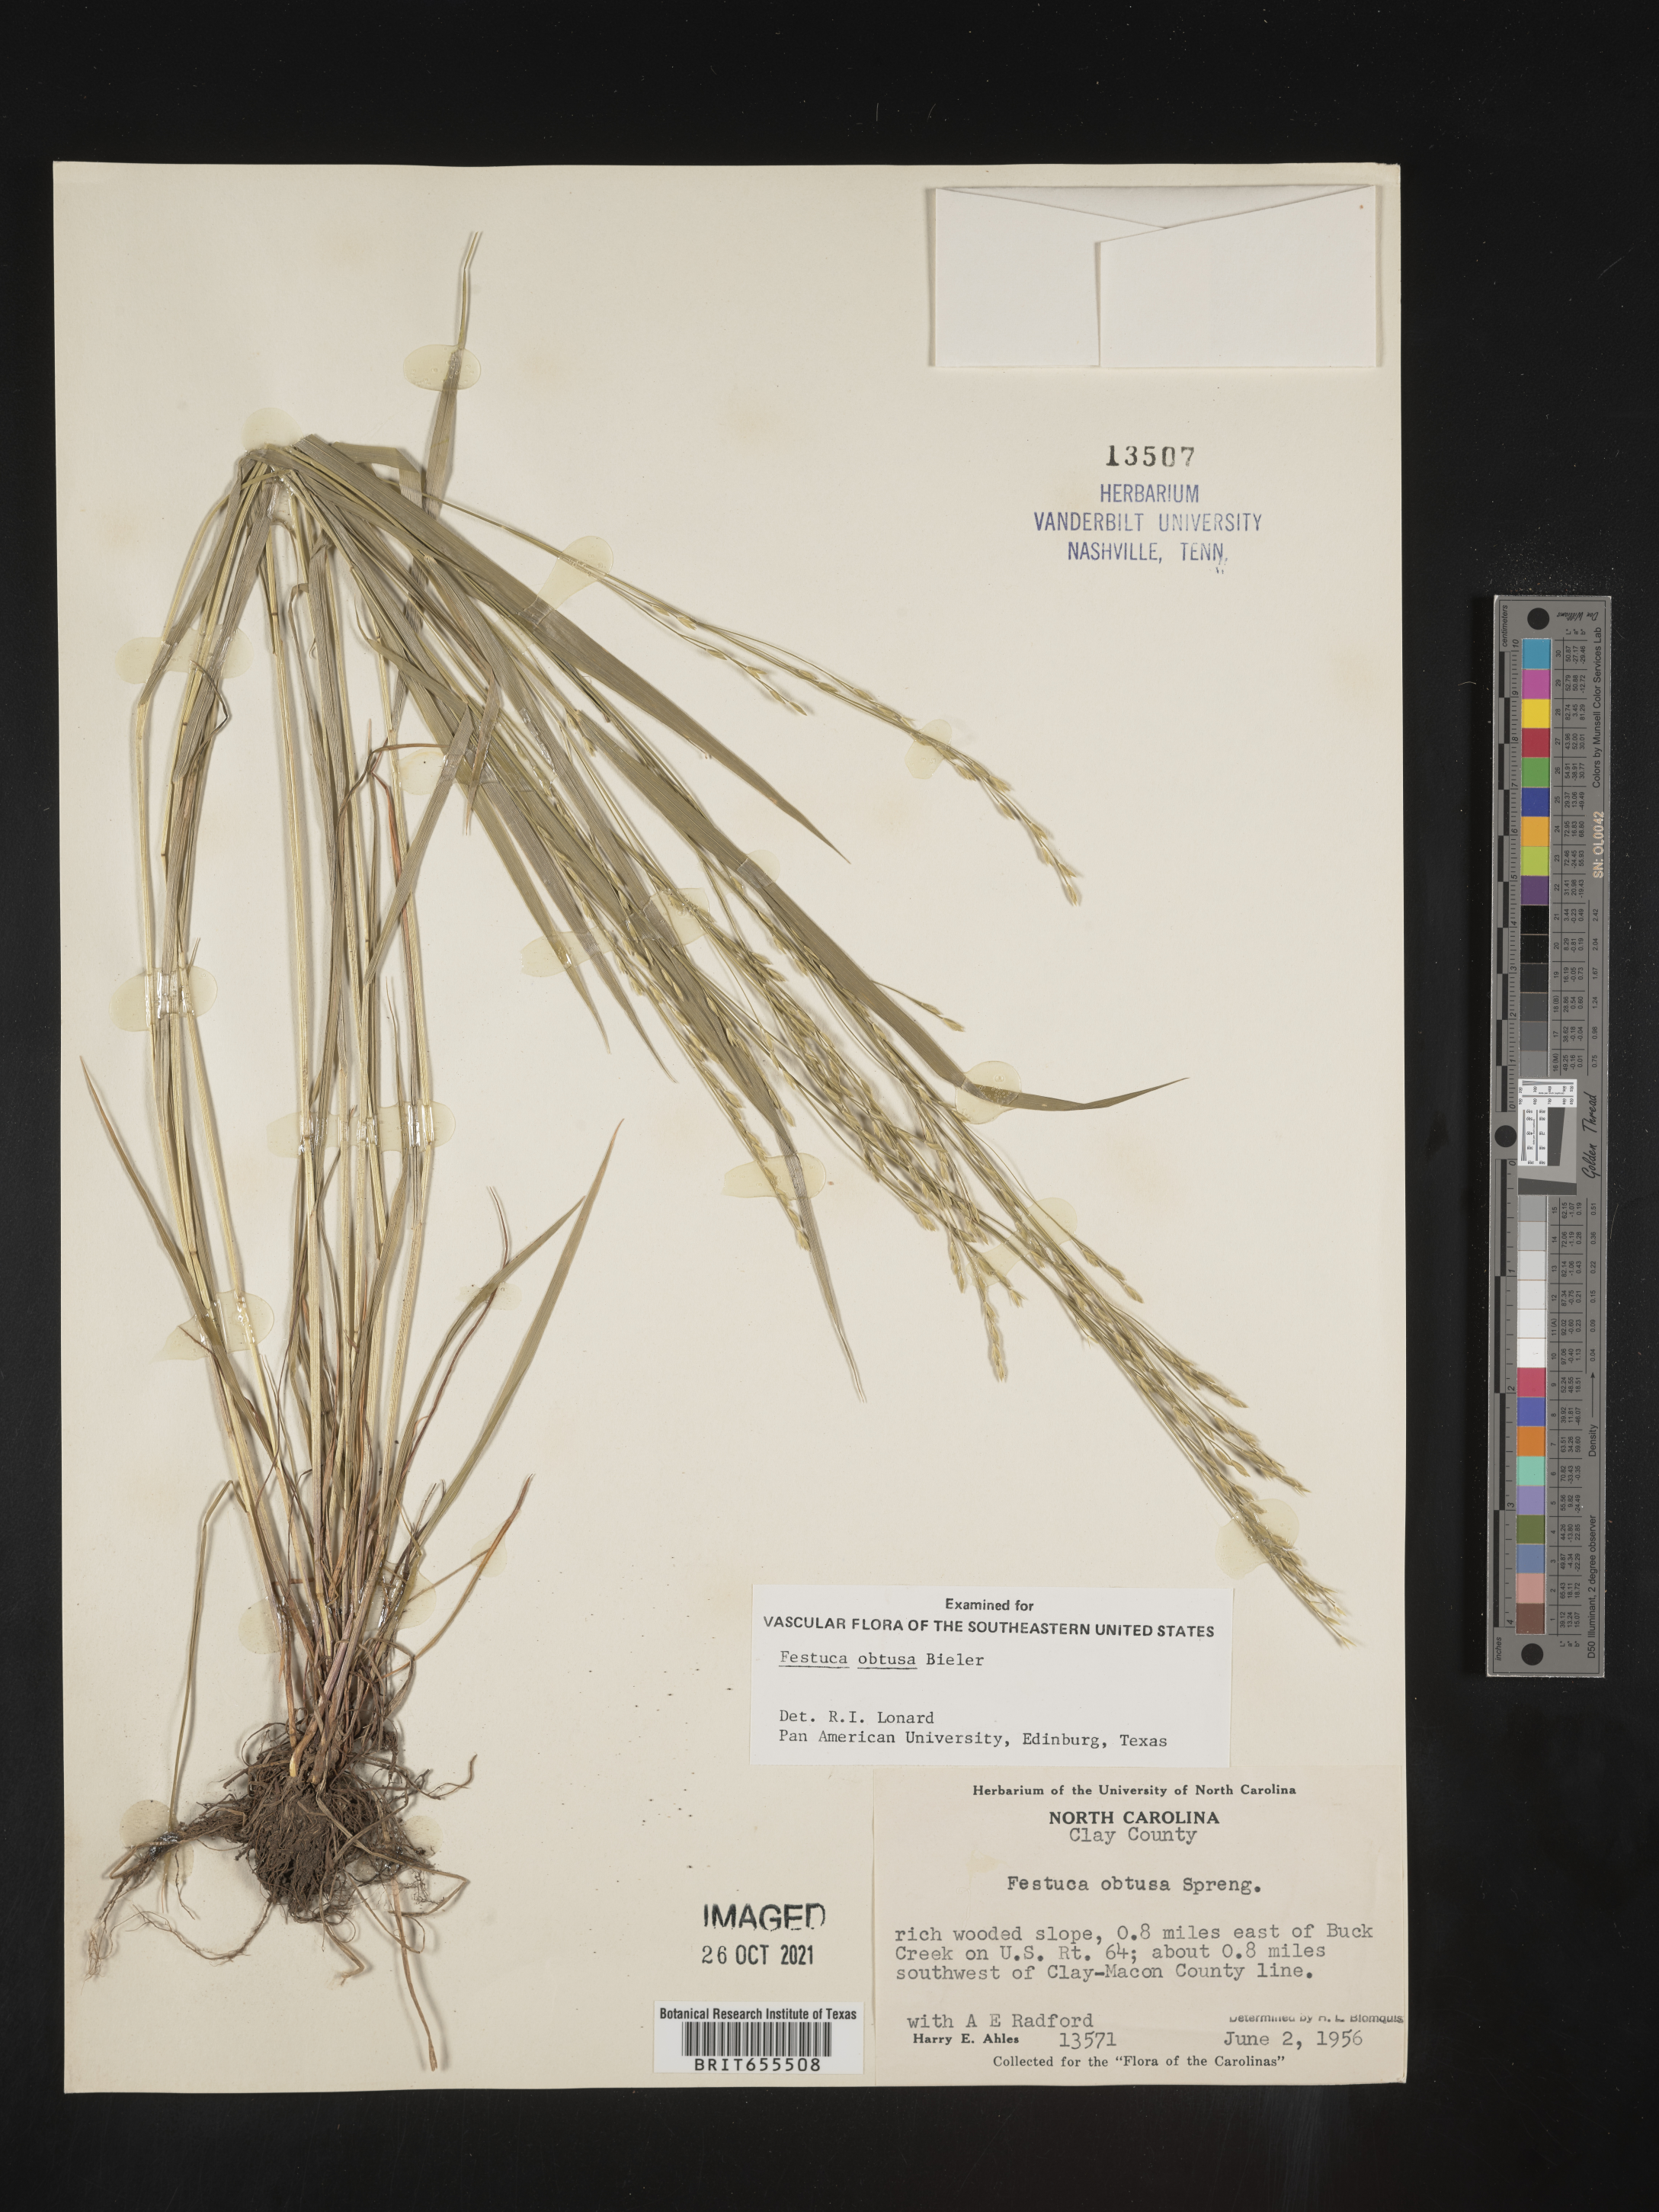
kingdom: Plantae
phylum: Tracheophyta
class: Liliopsida
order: Poales
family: Poaceae
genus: Festuca
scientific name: Festuca
